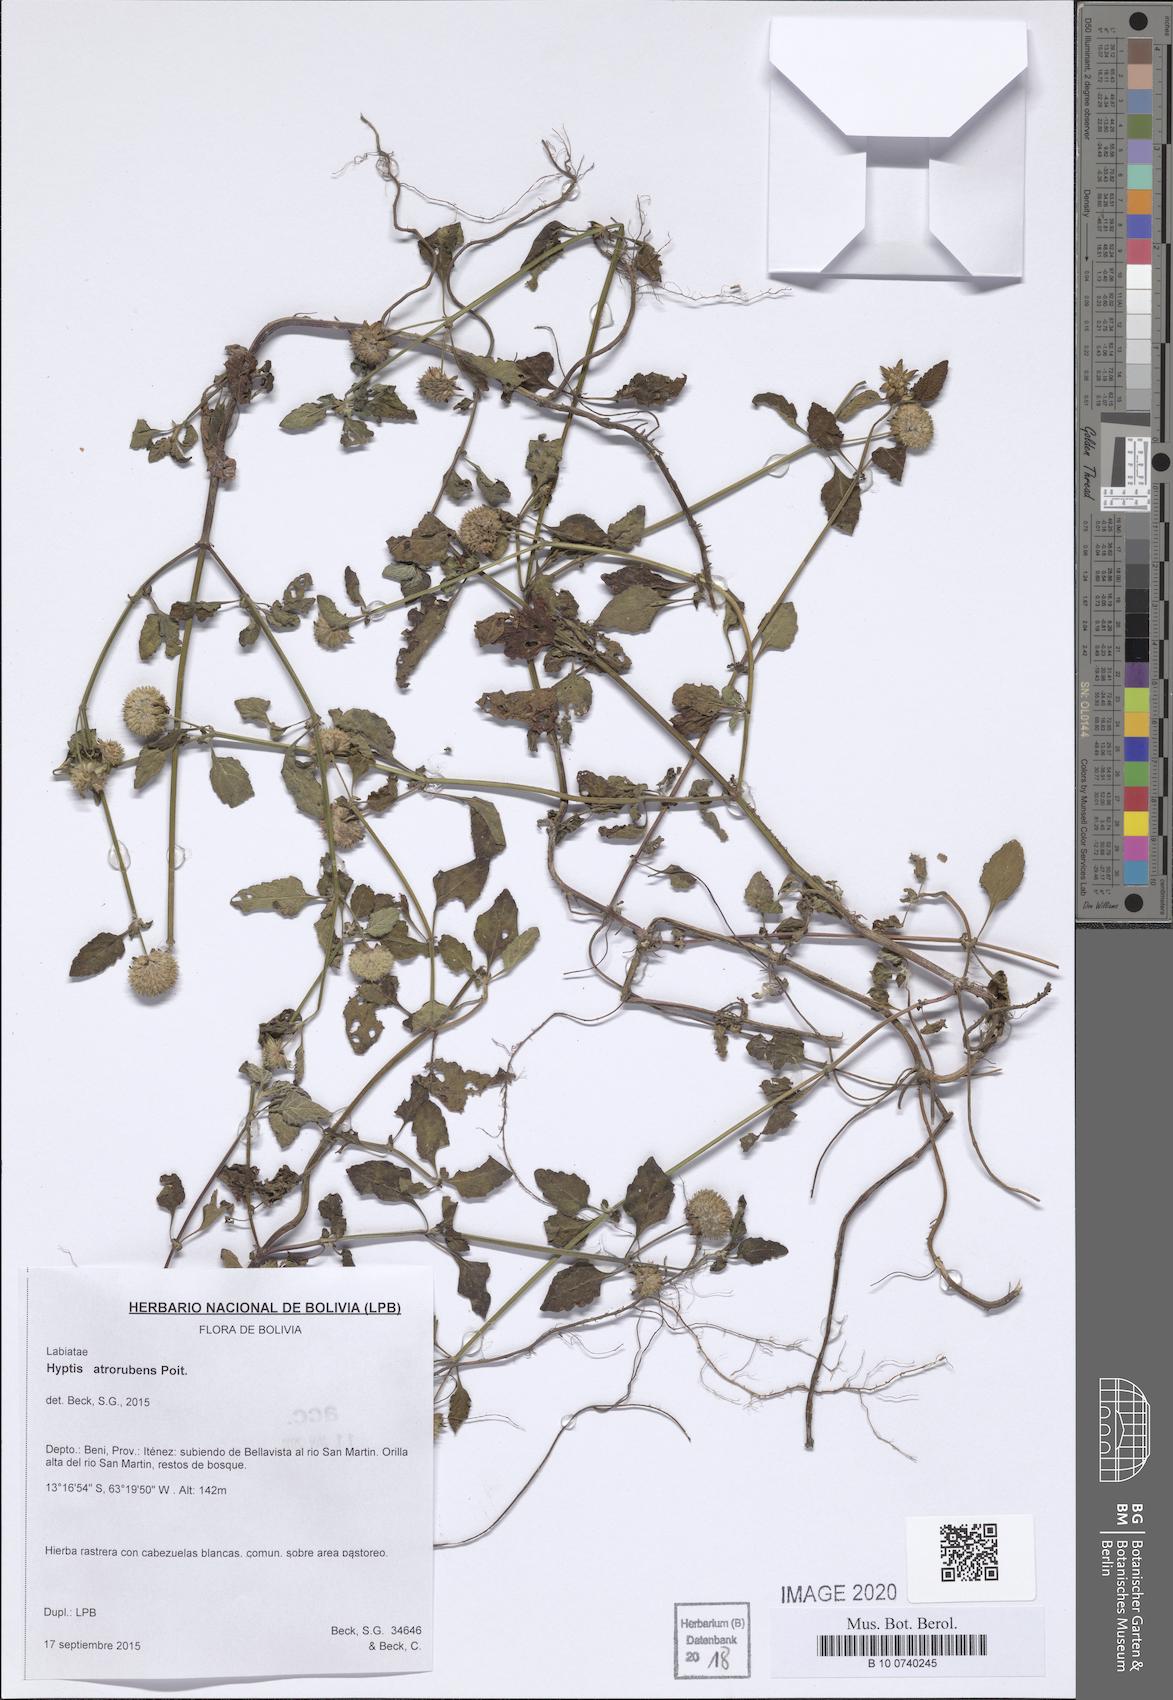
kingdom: Plantae
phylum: Tracheophyta
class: Magnoliopsida
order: Lamiales
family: Lamiaceae
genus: Hyptis
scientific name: Hyptis atrorubens
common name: Lanmant
